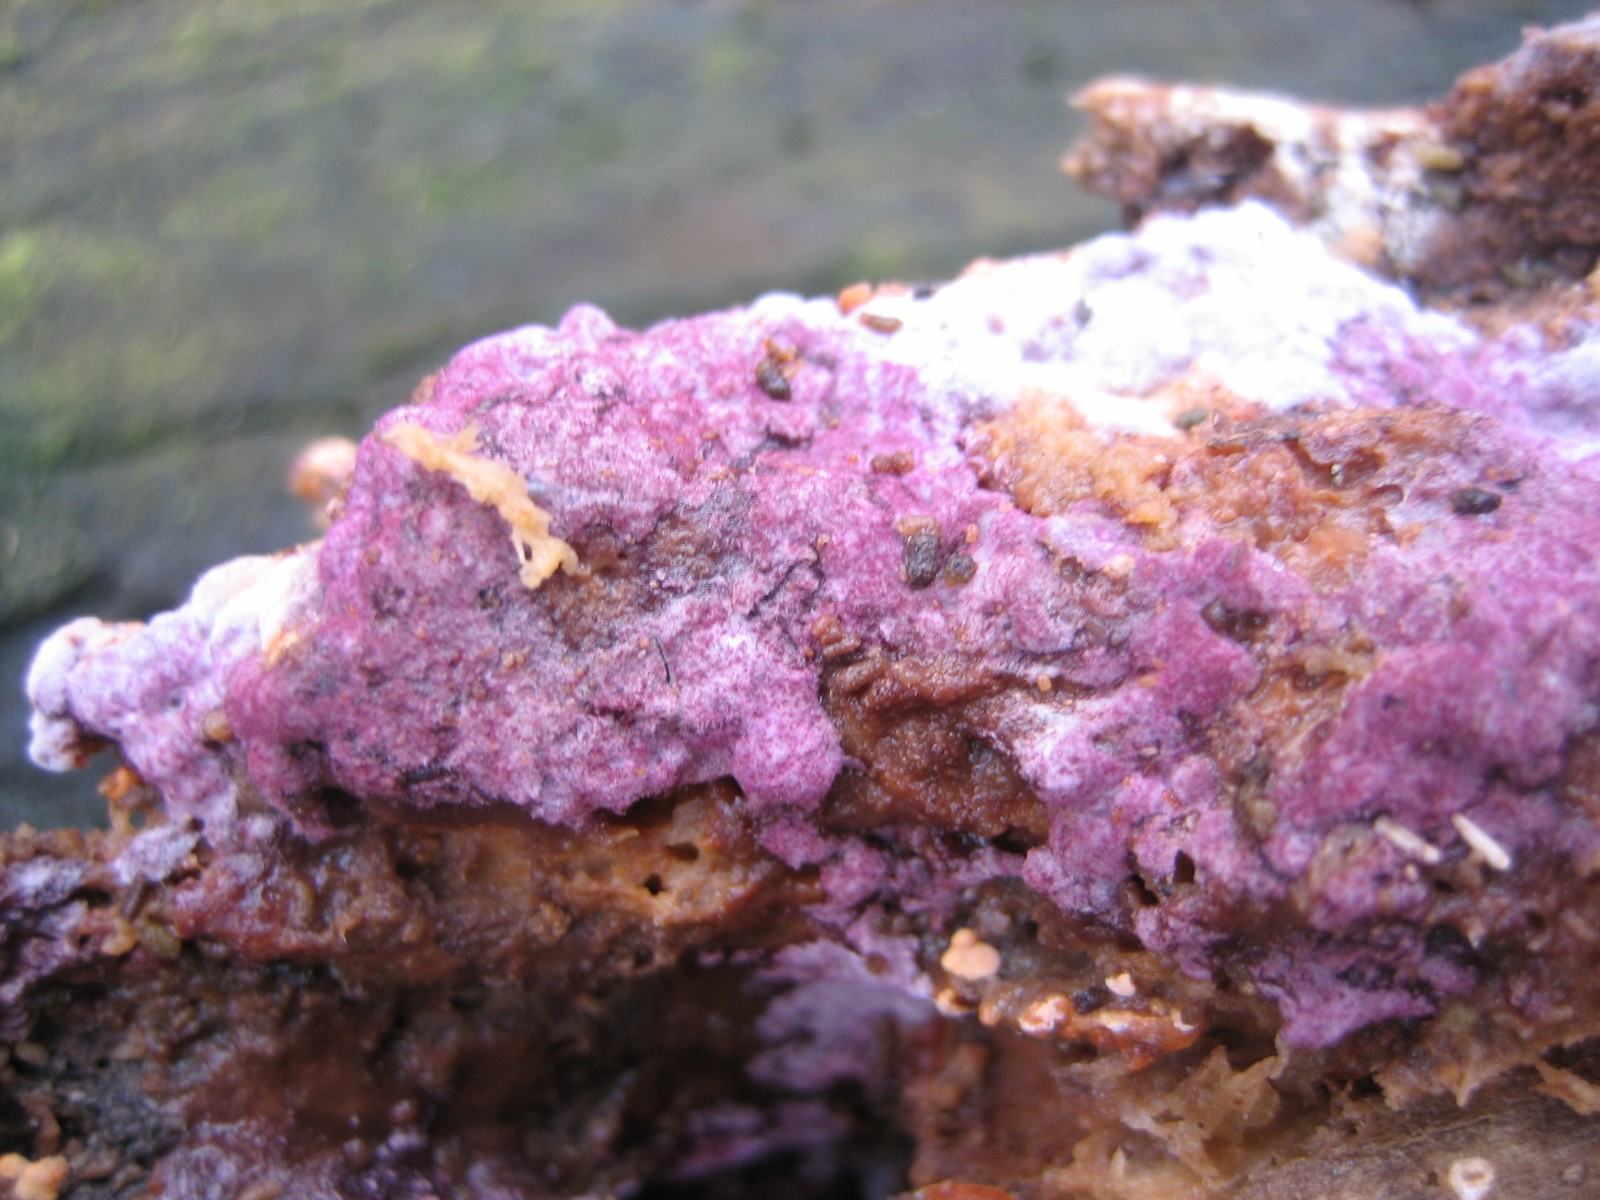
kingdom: Fungi
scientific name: Fungi
